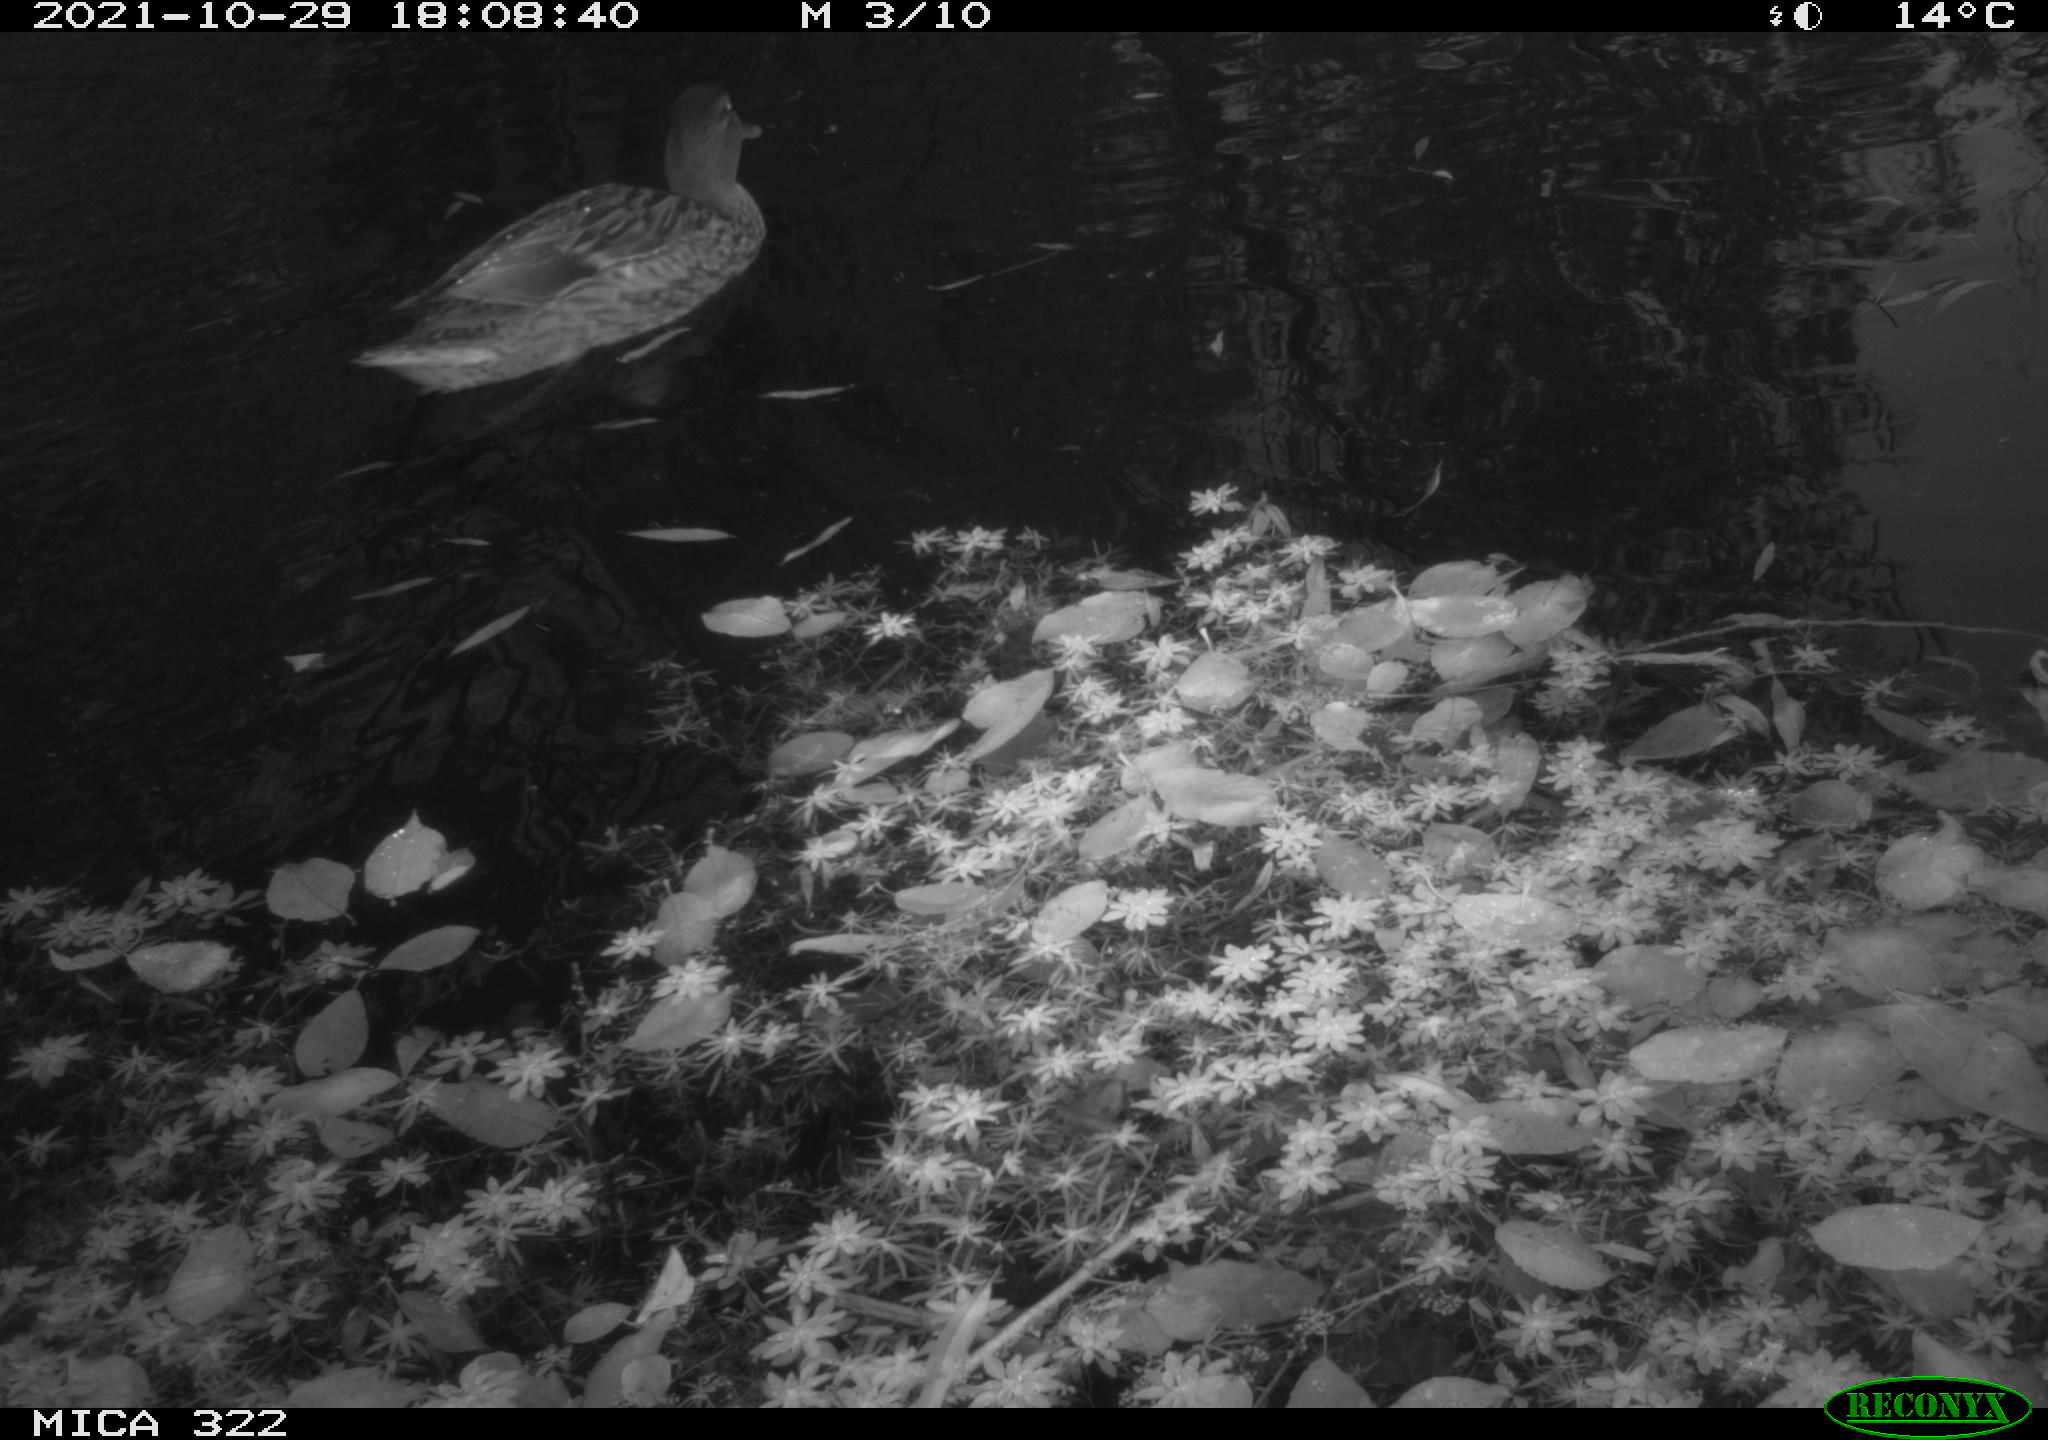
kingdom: Animalia
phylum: Chordata
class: Aves
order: Anseriformes
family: Anatidae
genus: Mareca
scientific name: Mareca strepera
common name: Gadwall
